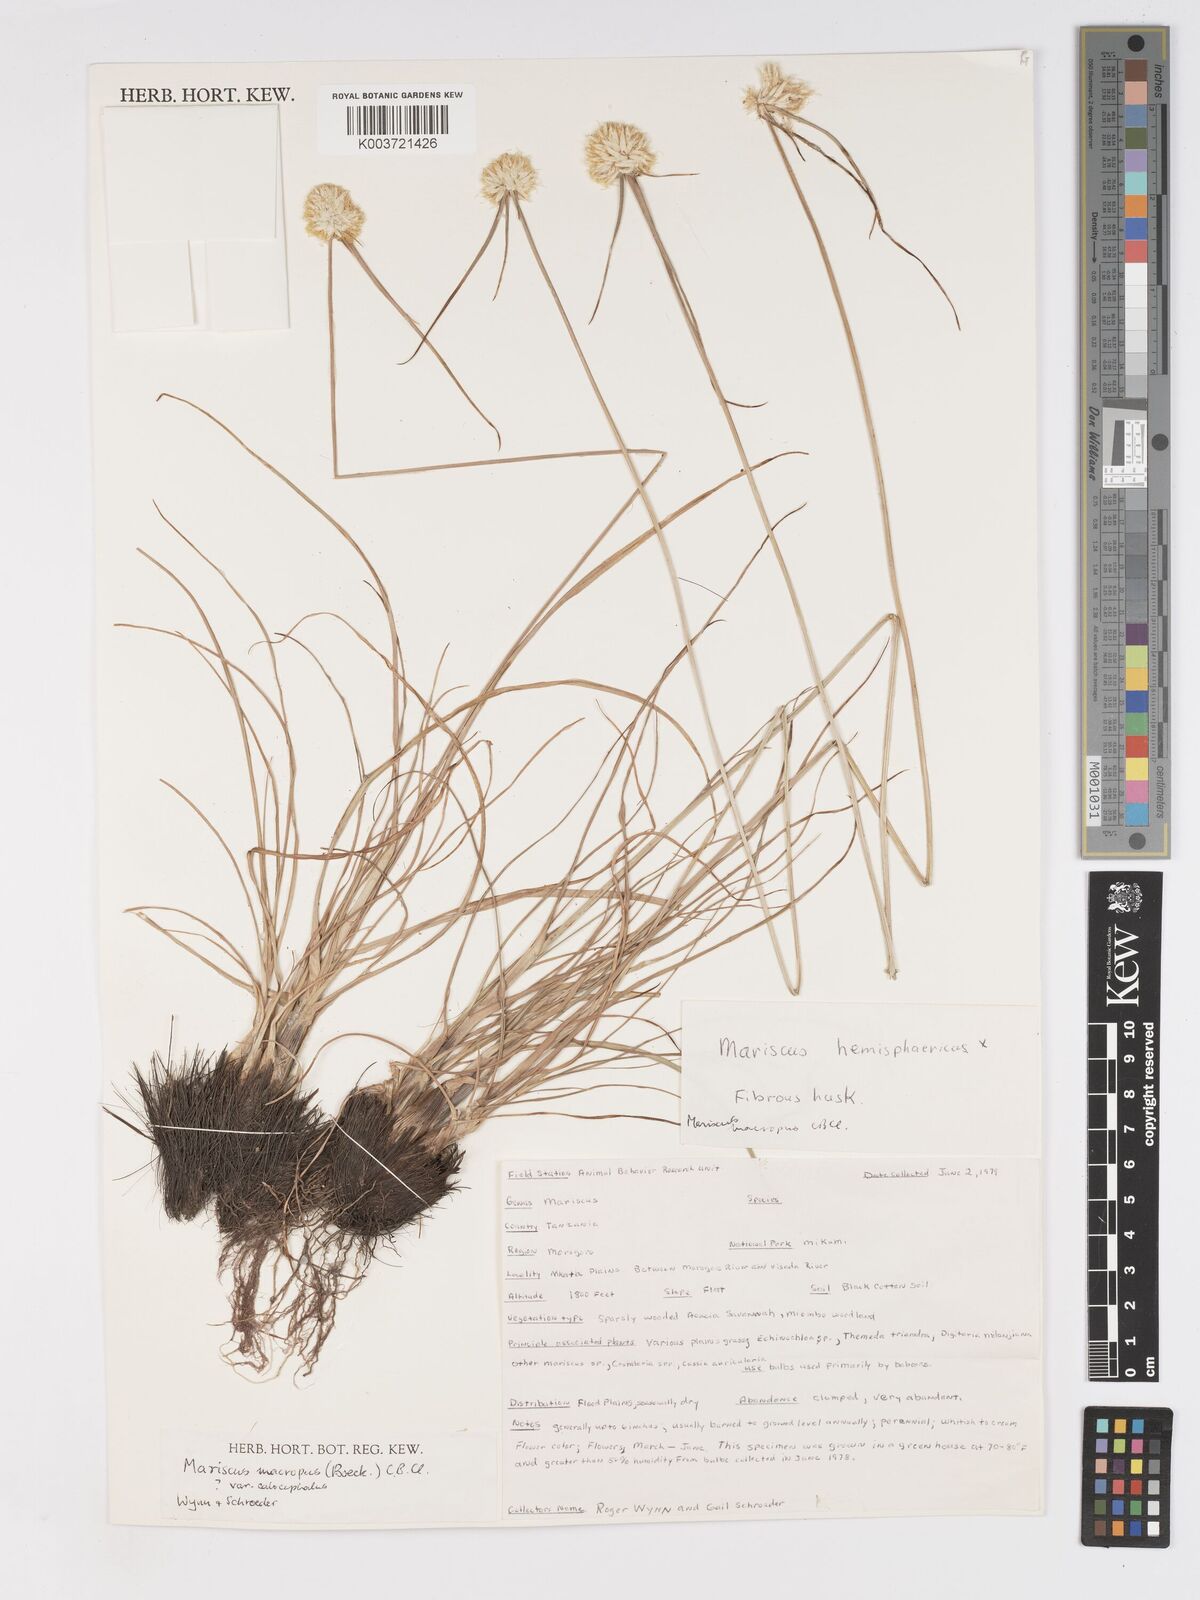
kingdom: Plantae
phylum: Tracheophyta
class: Liliopsida
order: Poales
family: Cyperaceae
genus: Cyperus
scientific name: Cyperus mollipes
